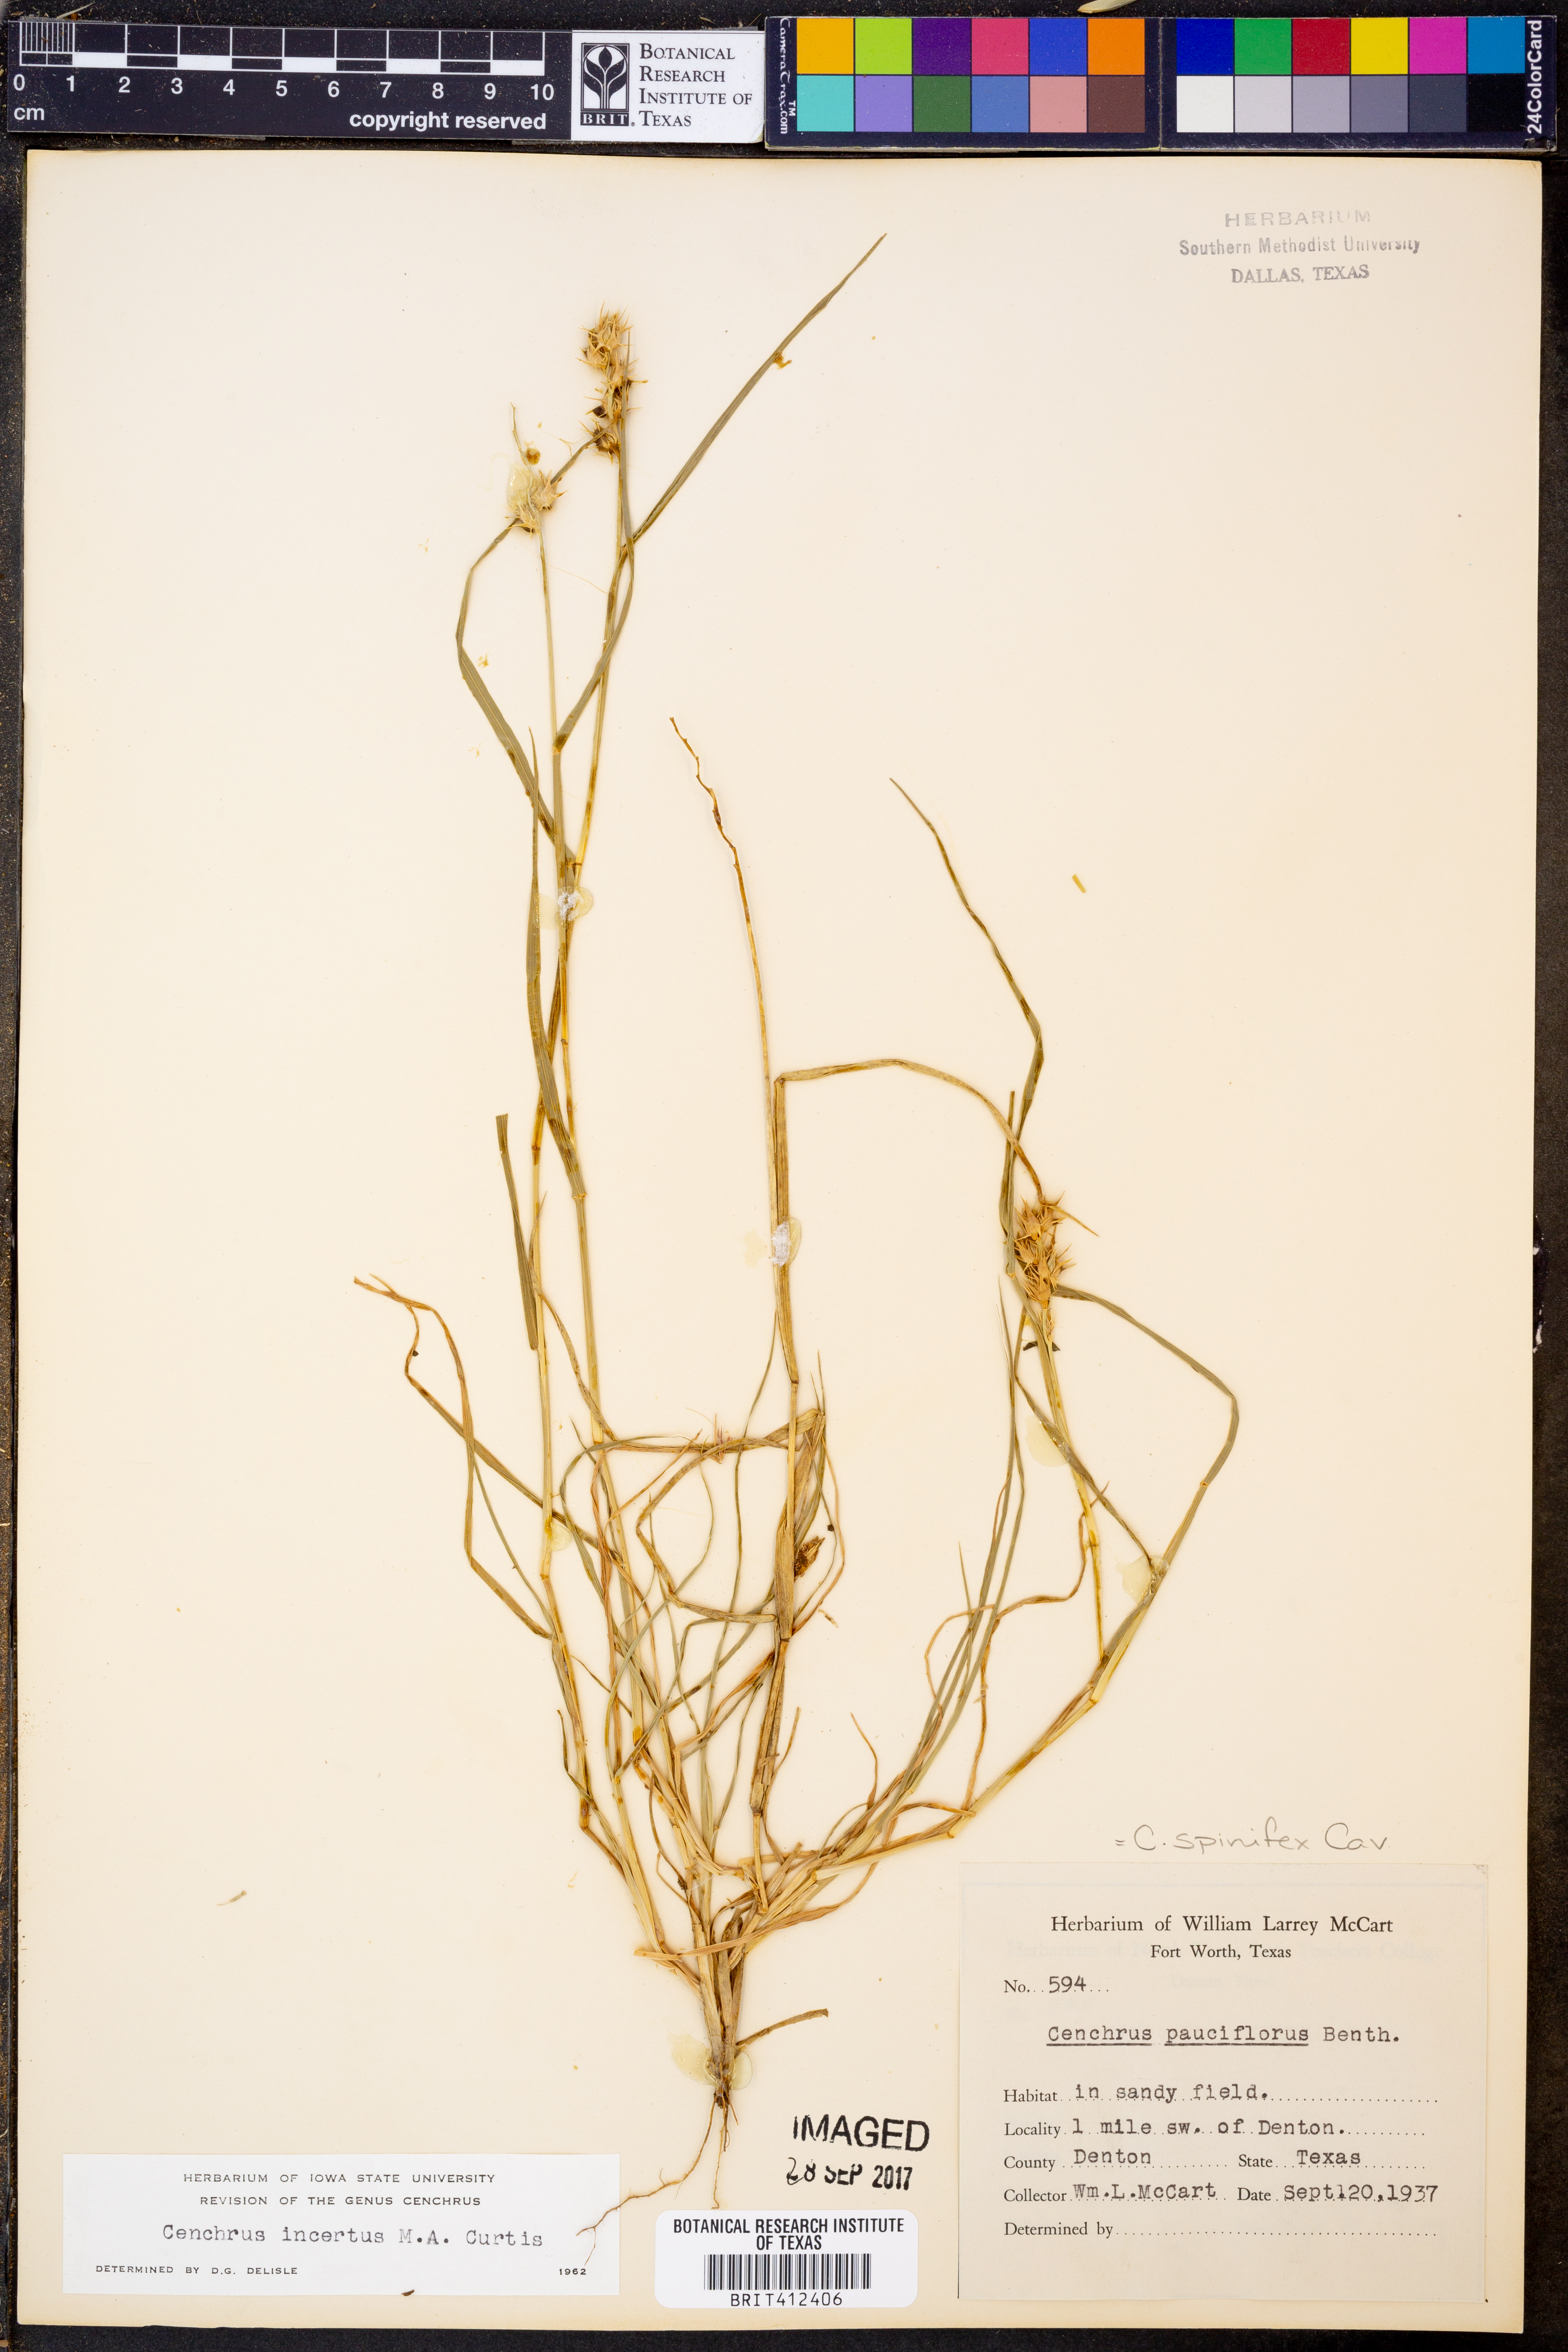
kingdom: Plantae
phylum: Tracheophyta
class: Liliopsida
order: Poales
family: Poaceae
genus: Cenchrus
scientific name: Cenchrus spinifex
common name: Coast sandbur
